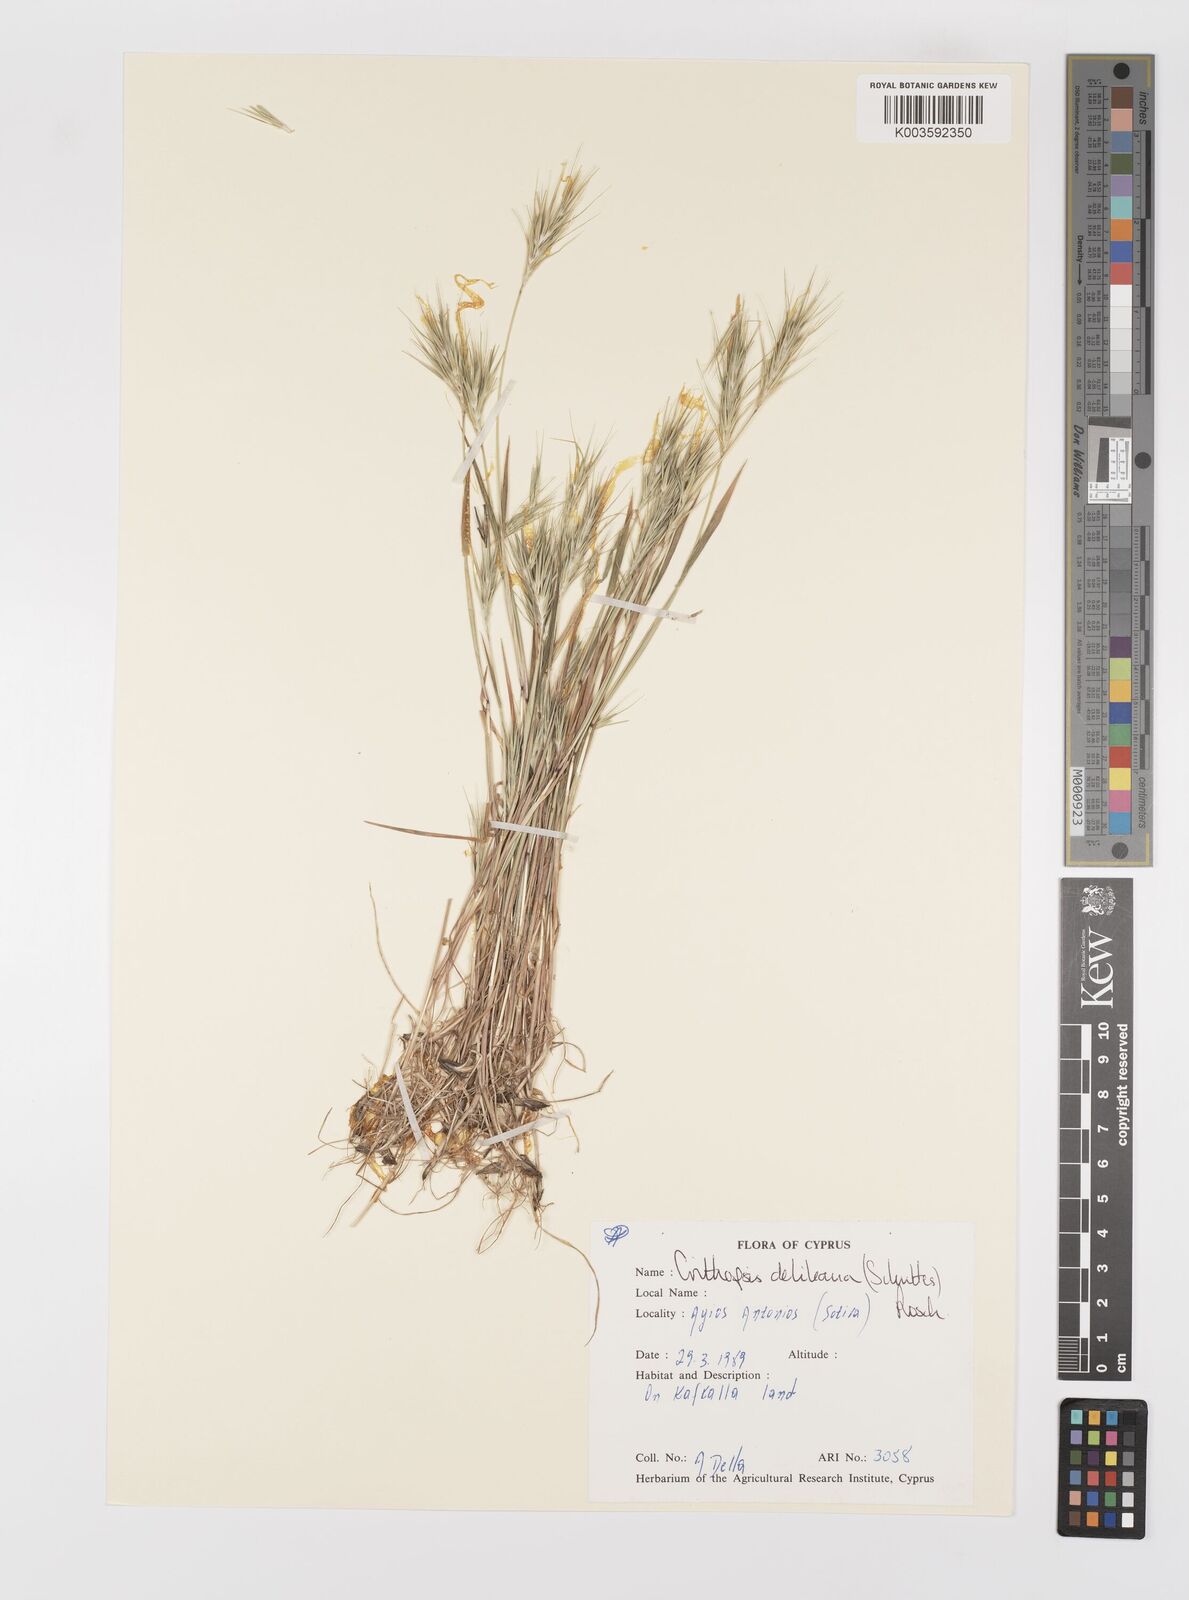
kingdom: Plantae
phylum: Tracheophyta
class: Liliopsida
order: Poales
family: Poaceae
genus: Crithopsis
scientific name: Crithopsis delileana
